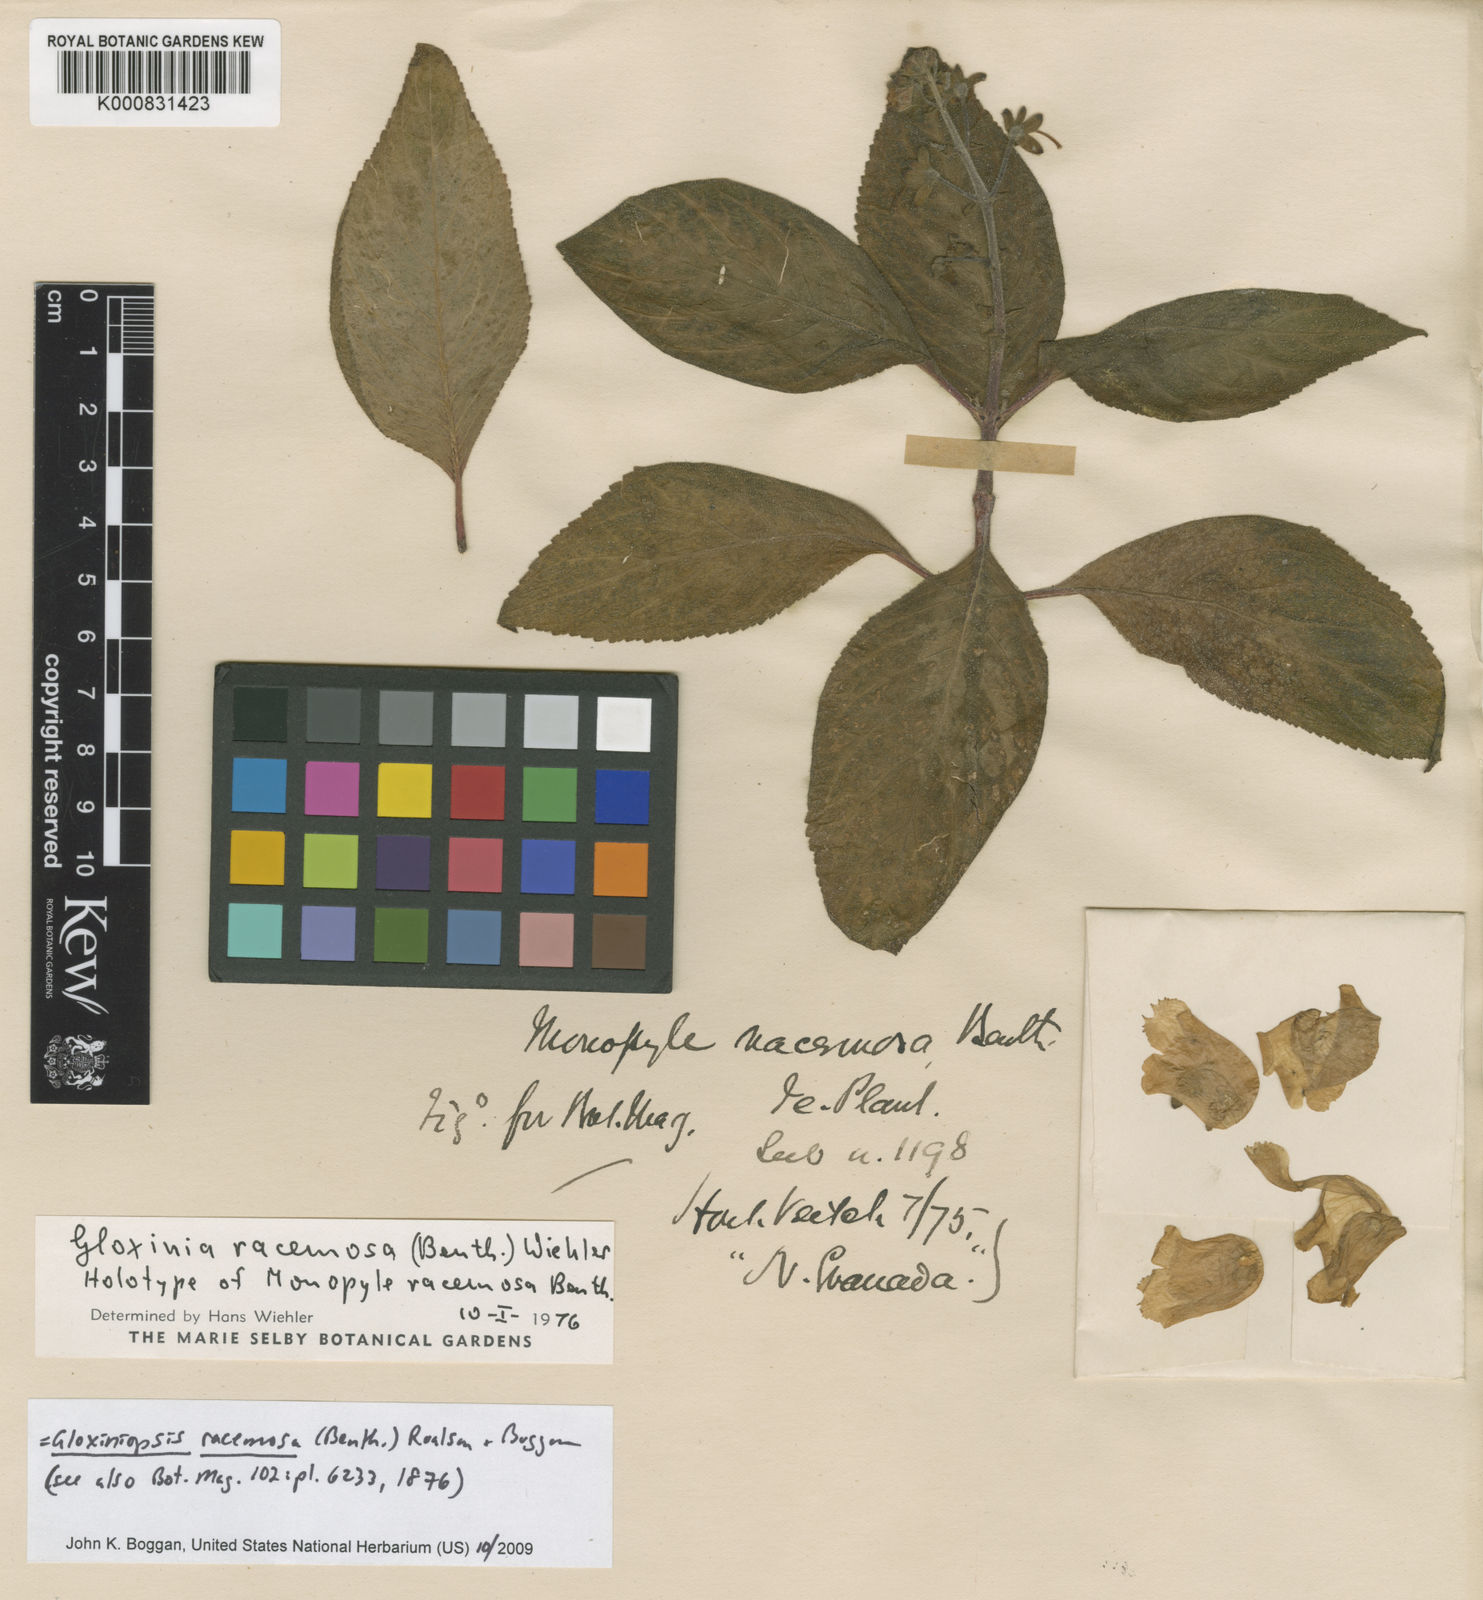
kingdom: Plantae
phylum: Tracheophyta
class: Magnoliopsida
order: Lamiales
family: Gesneriaceae
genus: Seemannia
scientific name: Seemannia sylvatica
